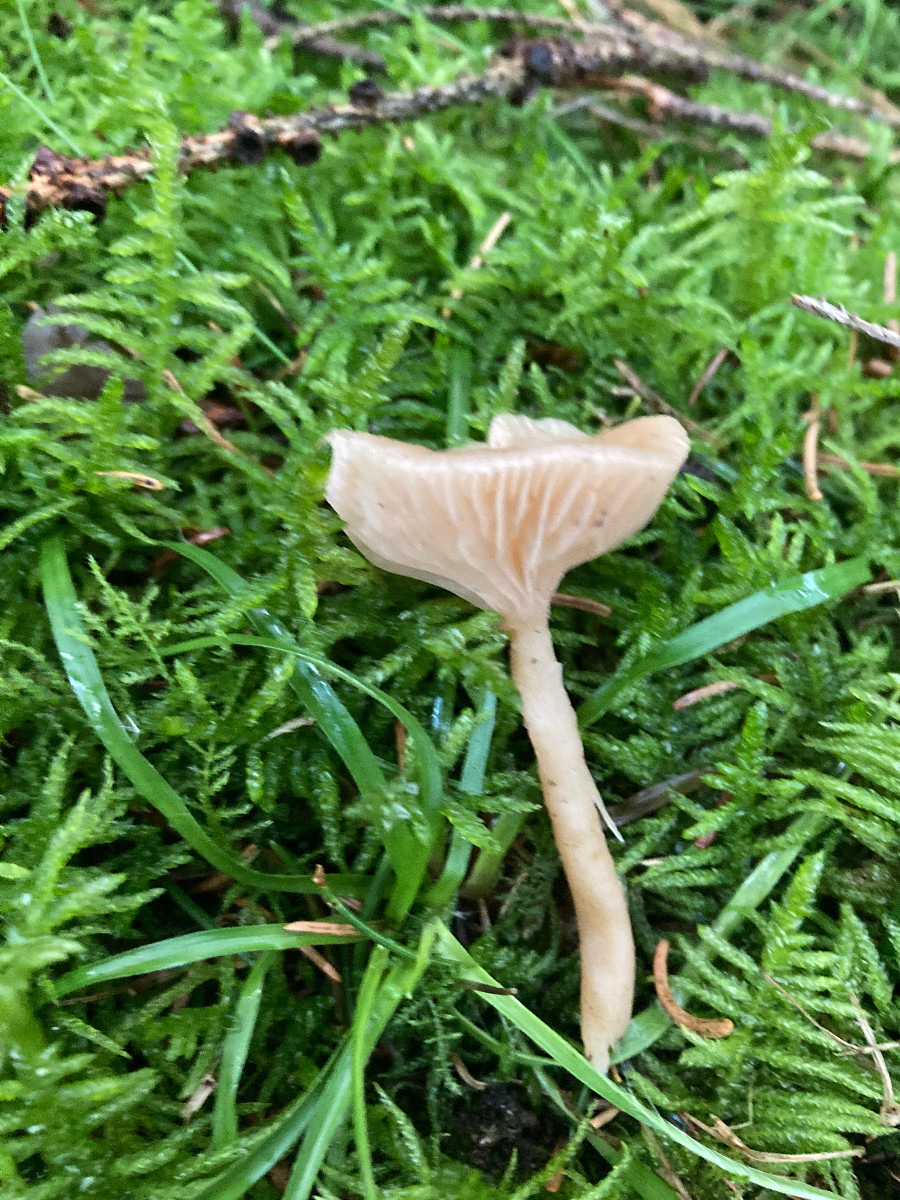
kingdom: Fungi
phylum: Basidiomycota
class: Agaricomycetes
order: Agaricales
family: Tricholomataceae
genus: Clitocybe
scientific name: Clitocybe fragrans
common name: vellugtende tragthat
